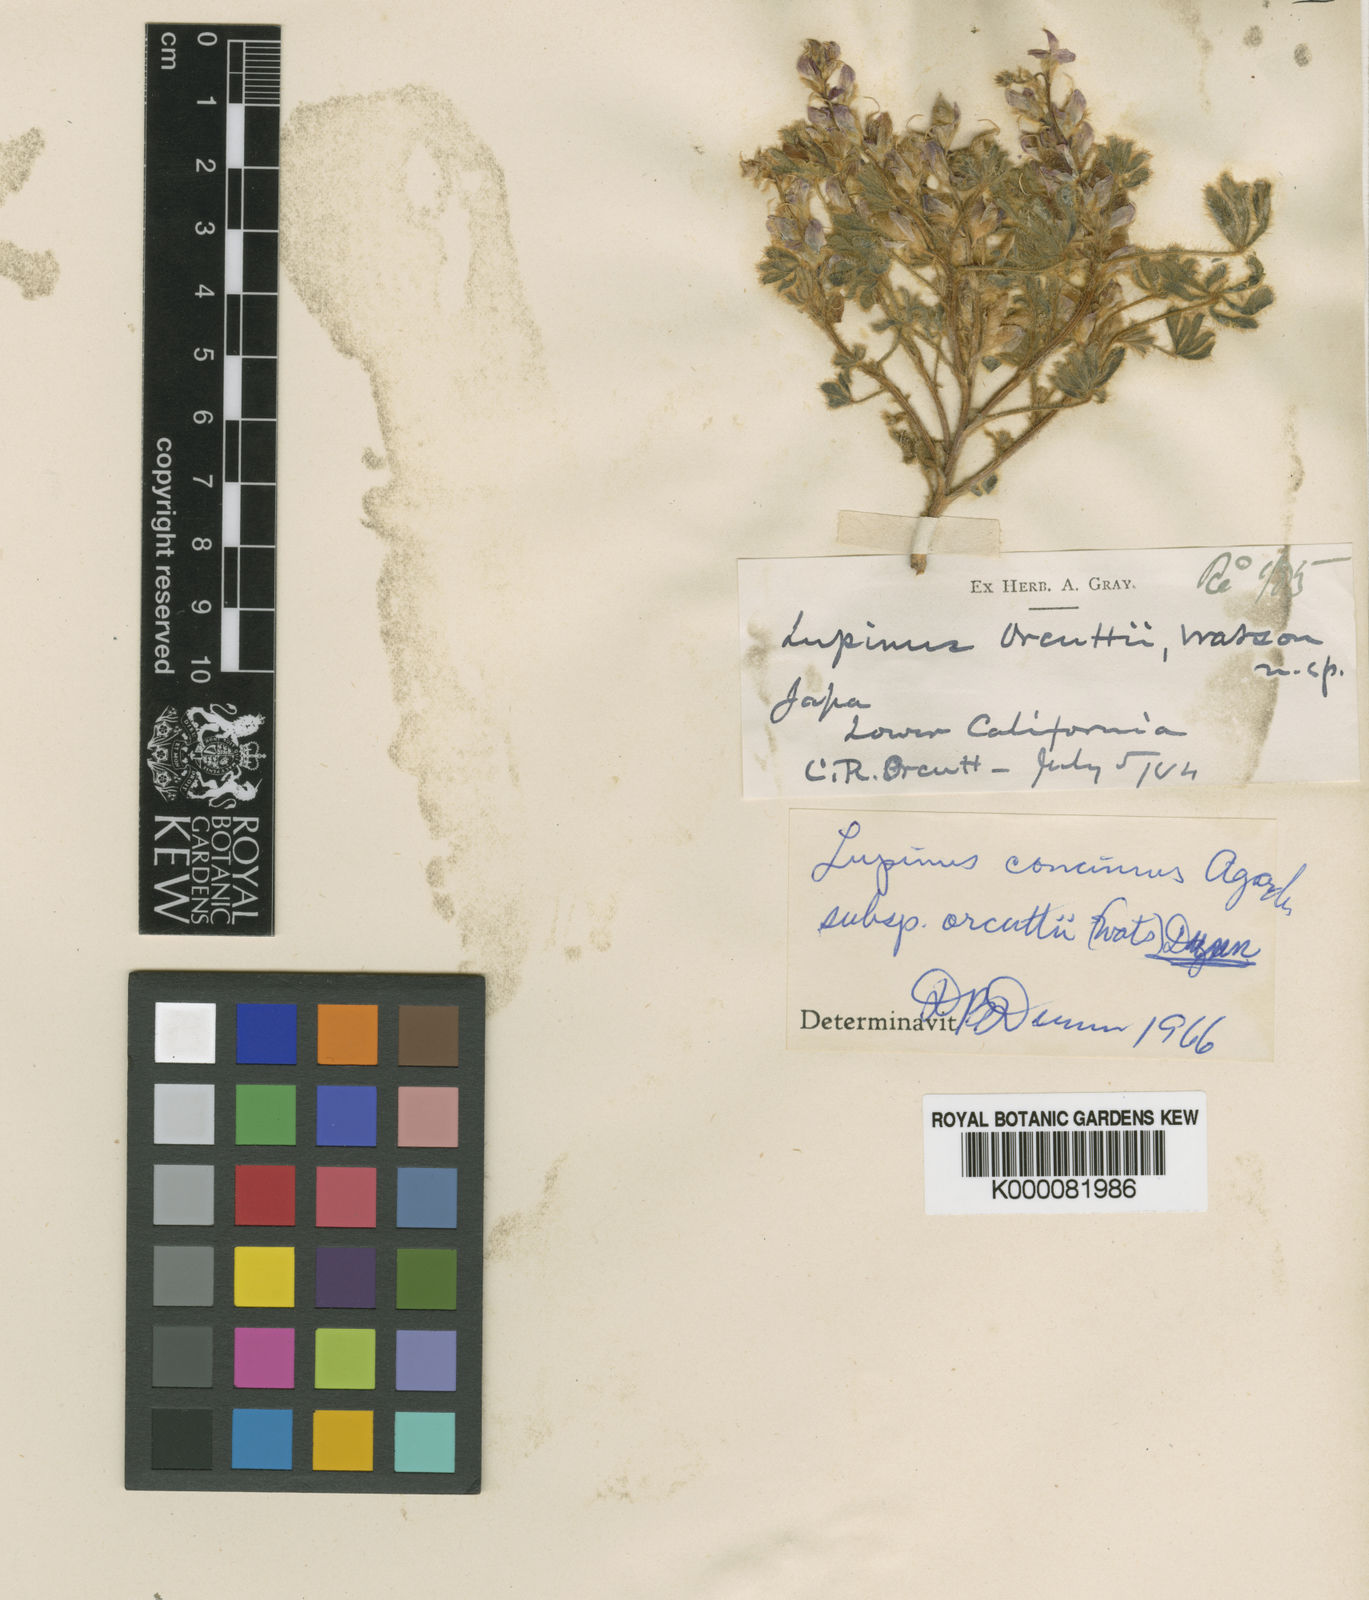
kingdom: Plantae
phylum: Tracheophyta
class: Magnoliopsida
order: Fabales
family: Fabaceae
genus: Lupinus
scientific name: Lupinus concinnus
